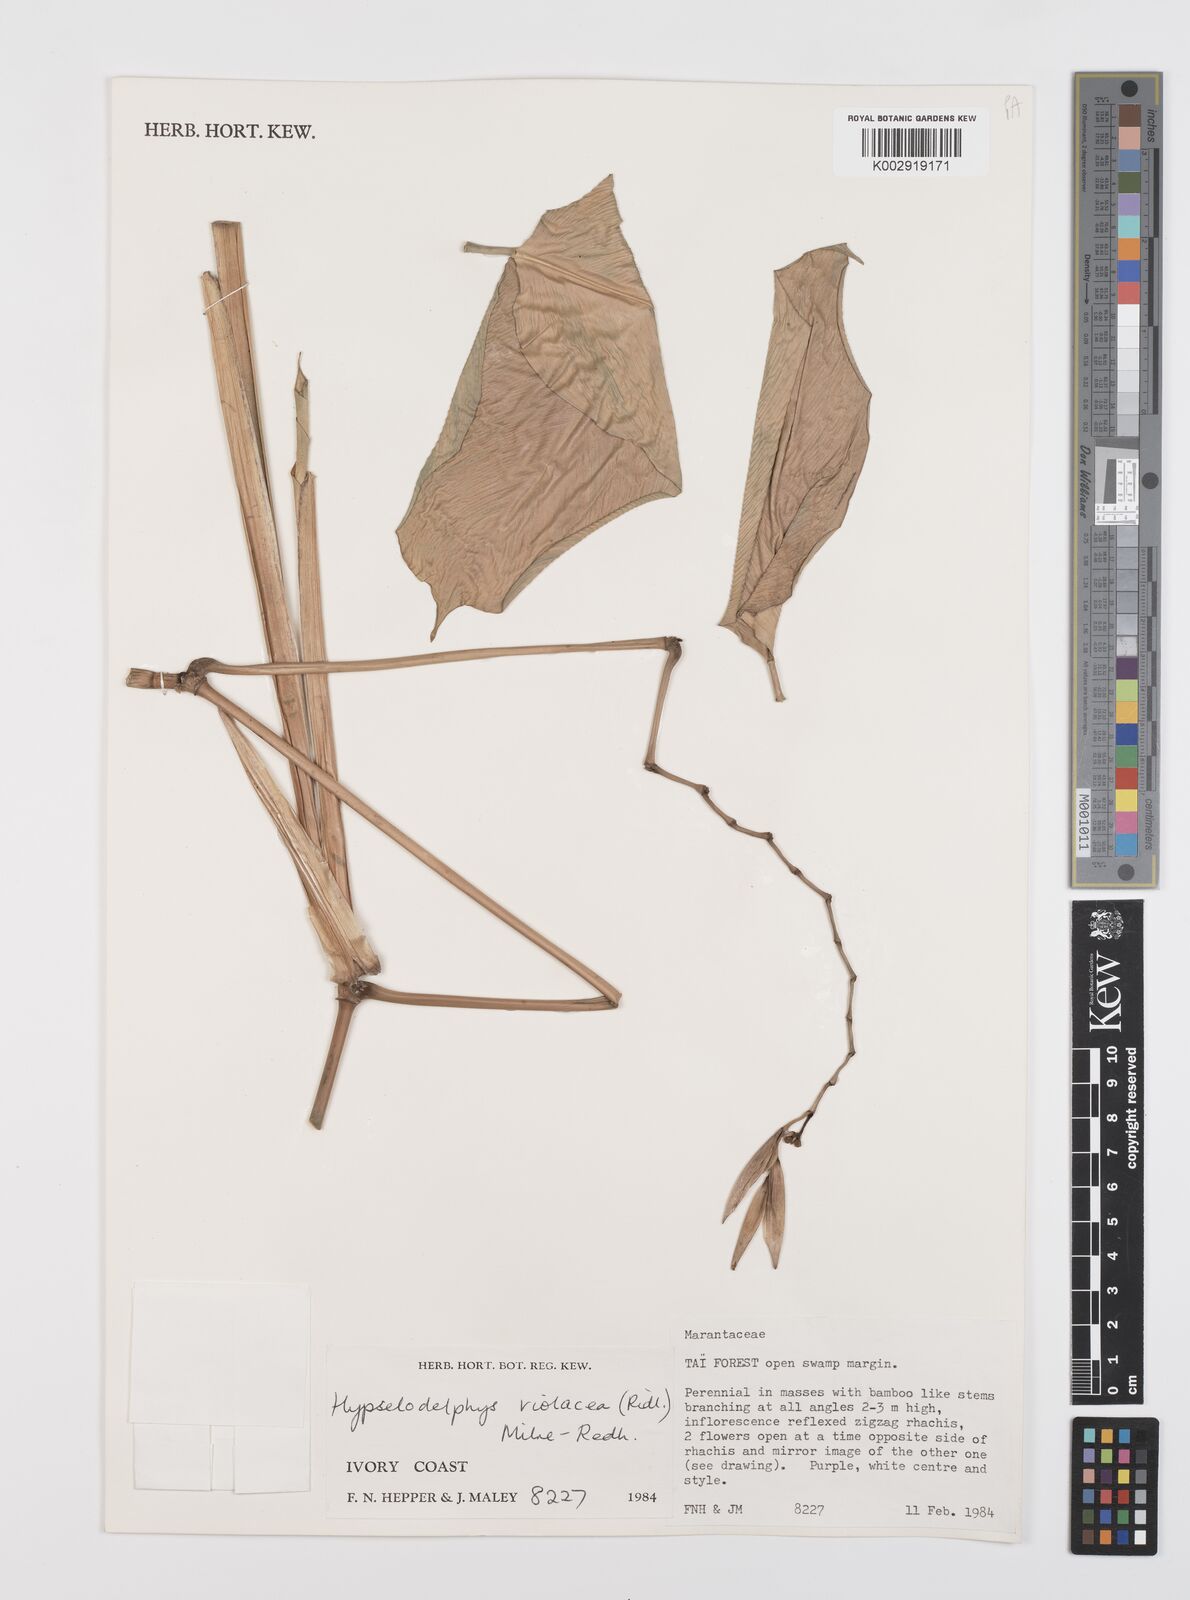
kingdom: Plantae
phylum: Tracheophyta
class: Liliopsida
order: Zingiberales
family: Marantaceae
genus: Hypselodelphys
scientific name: Hypselodelphys violacea
